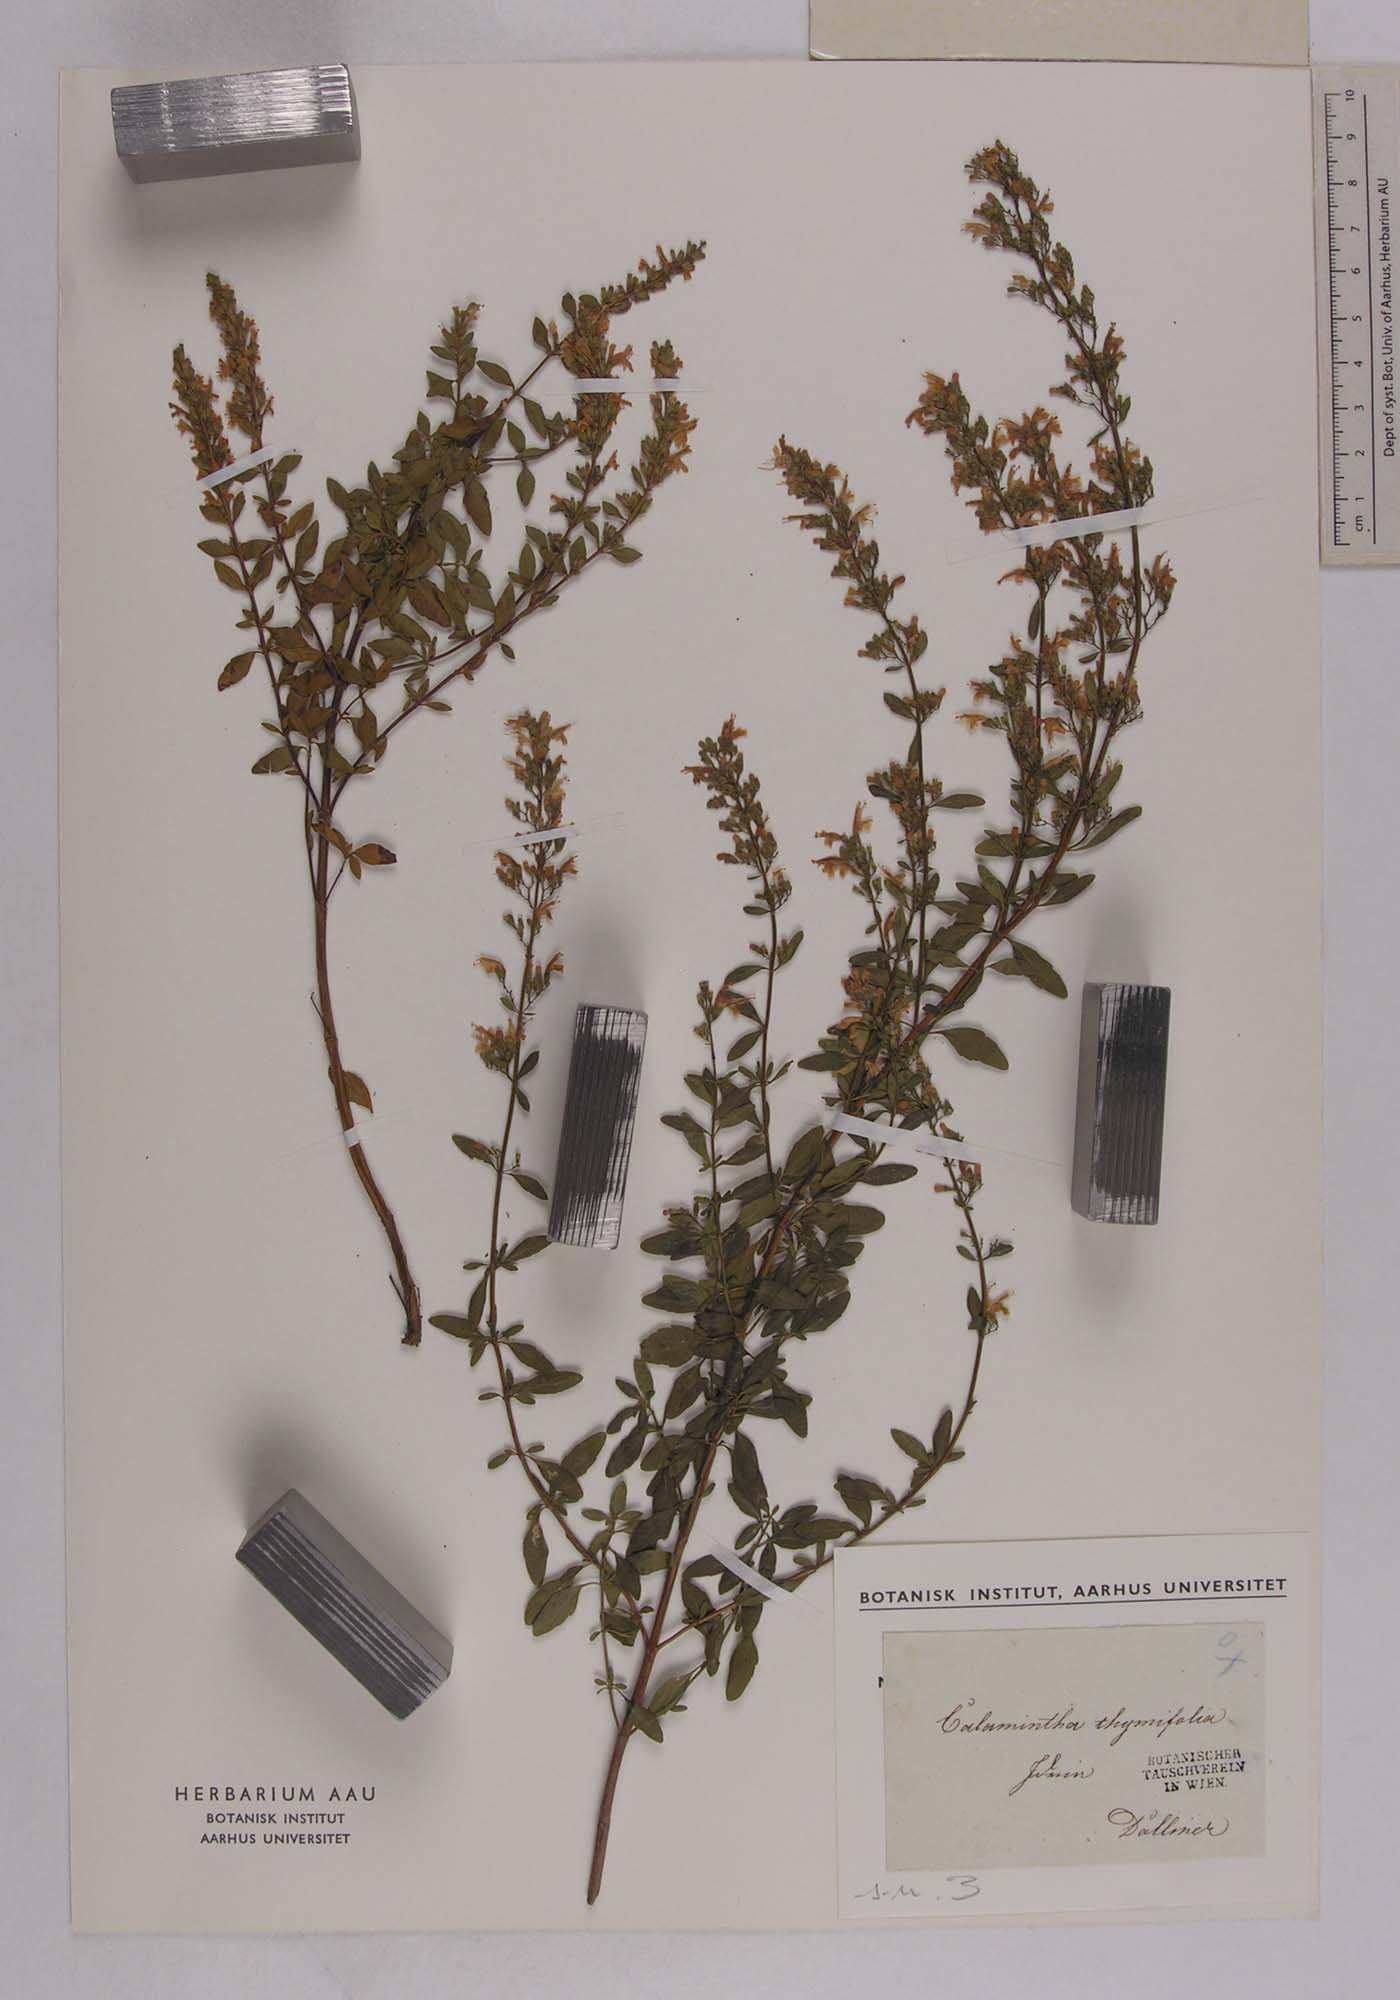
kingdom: Plantae
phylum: Tracheophyta
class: Magnoliopsida
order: Lamiales
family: Lamiaceae
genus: Clinopodium
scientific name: Clinopodium album
